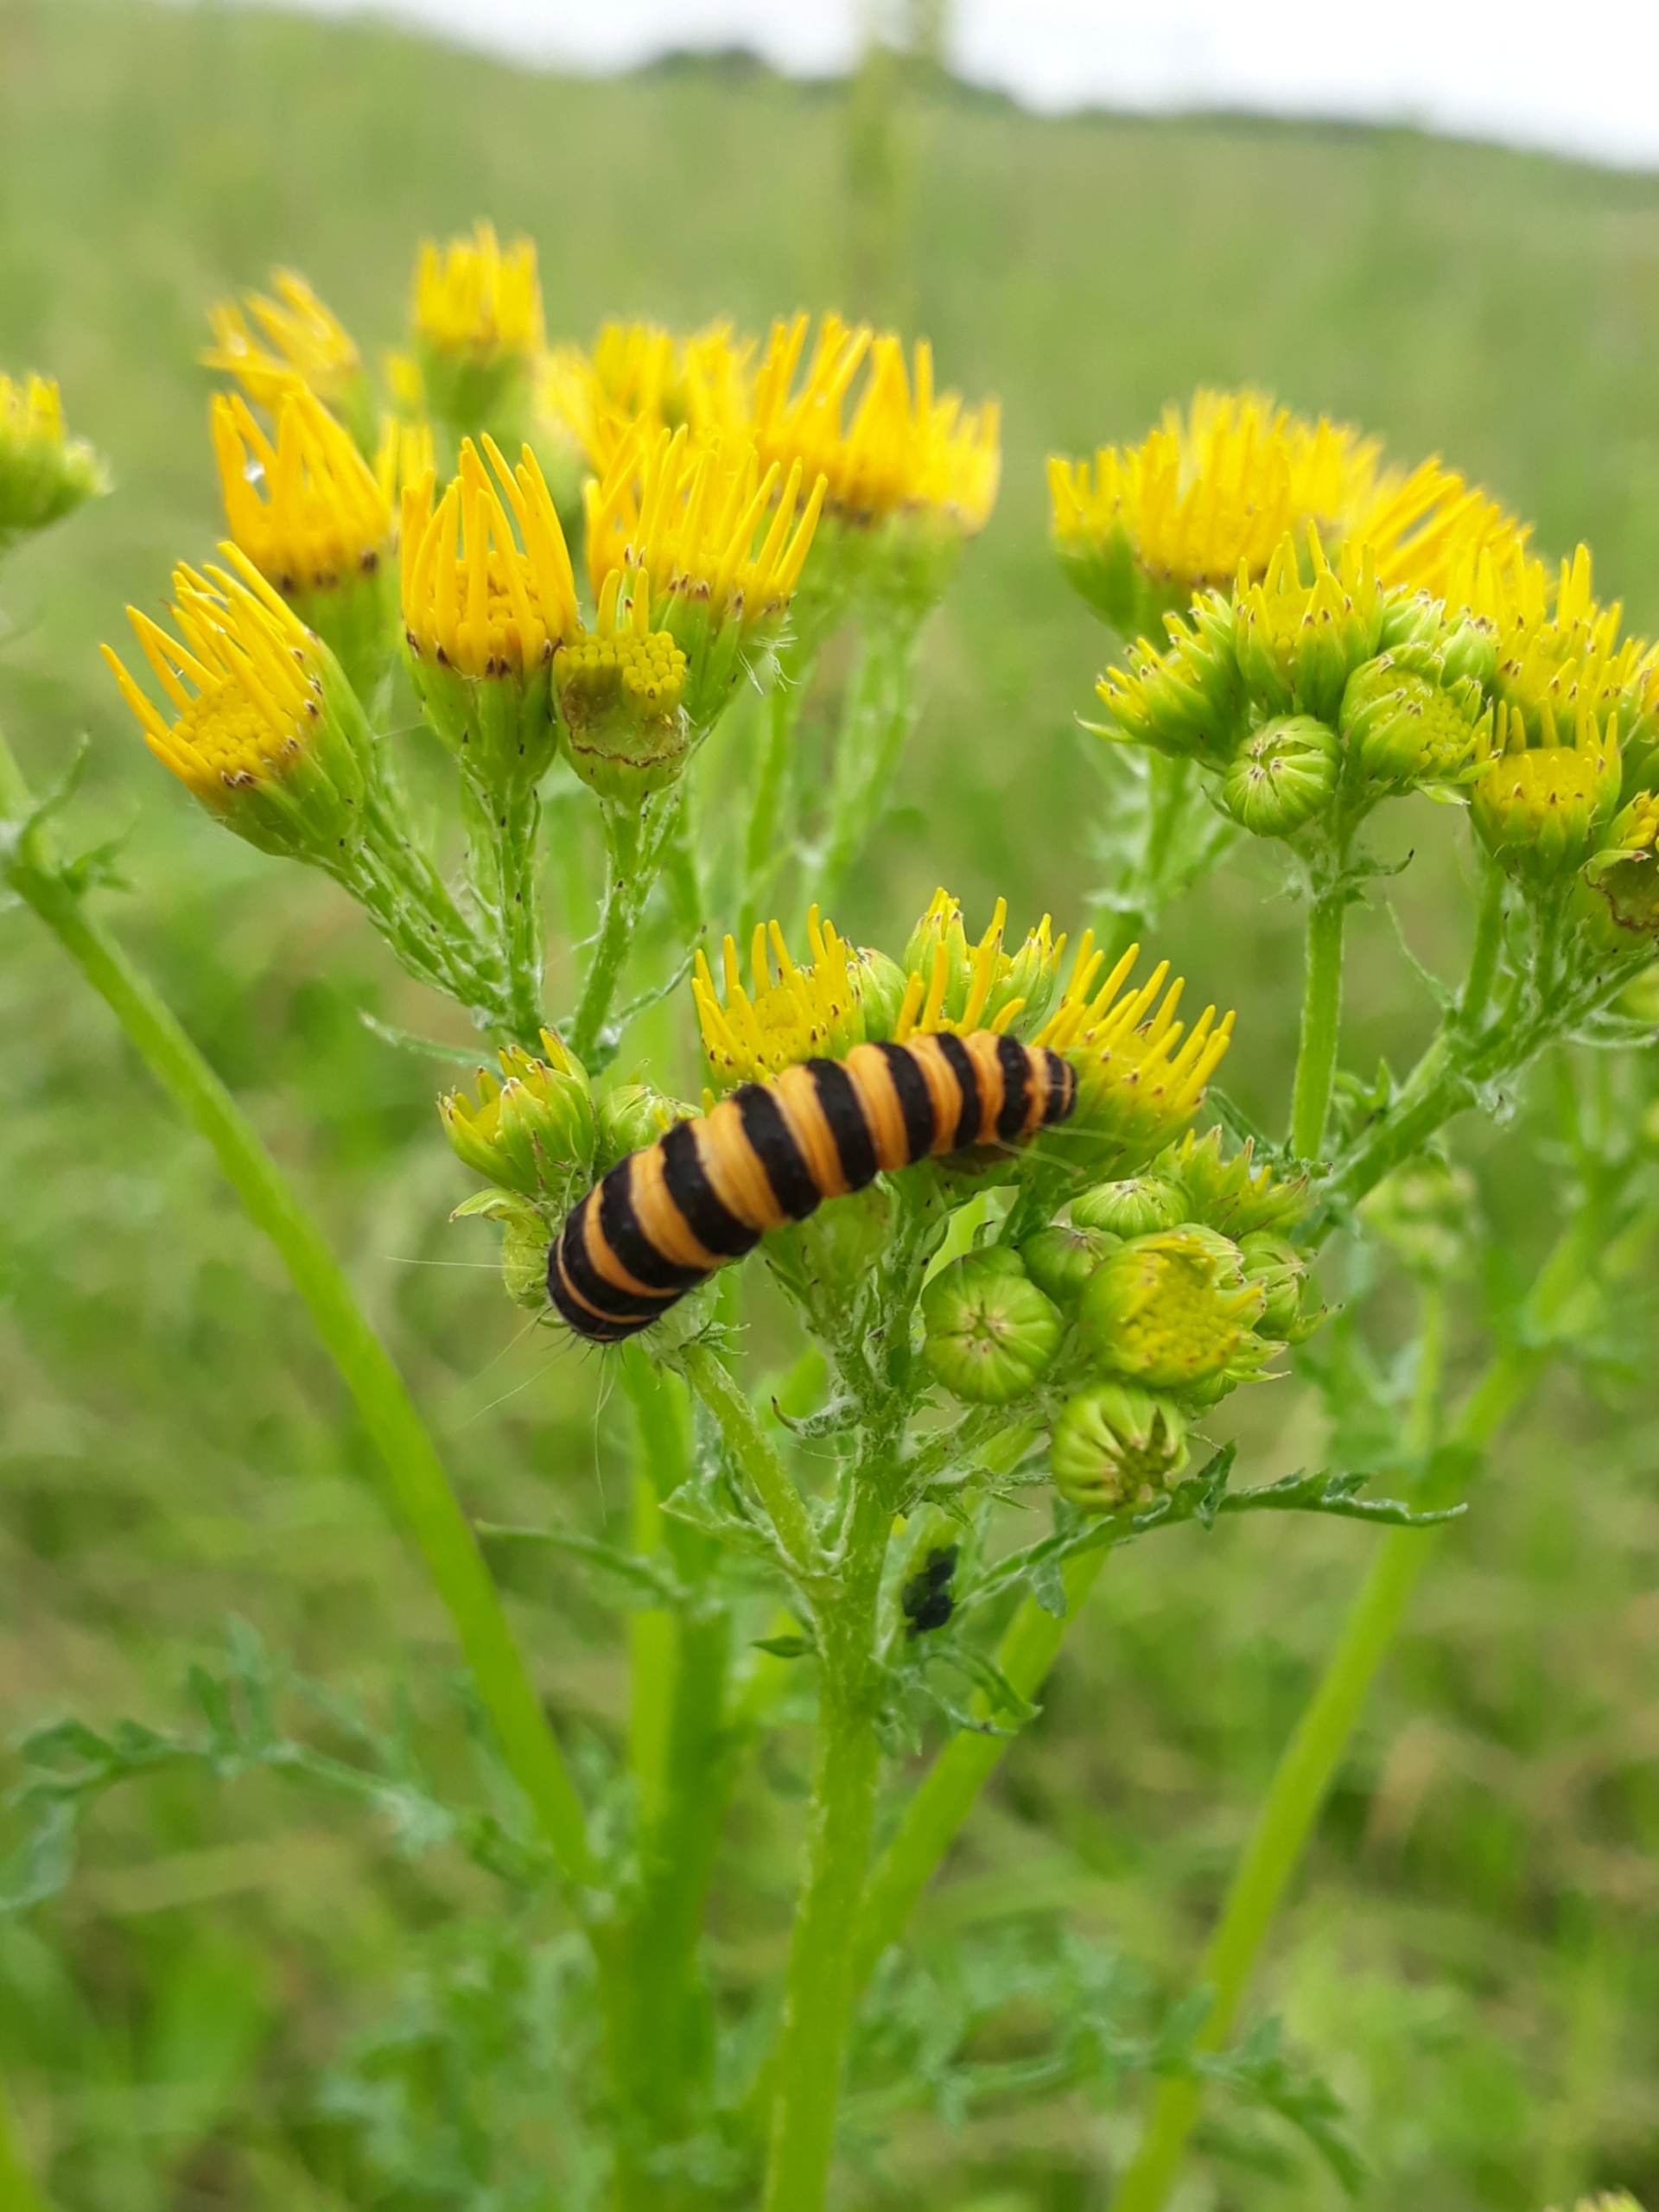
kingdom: Animalia
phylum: Arthropoda
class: Insecta
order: Lepidoptera
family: Erebidae
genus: Tyria
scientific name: Tyria jacobaeae
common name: Blodplet
